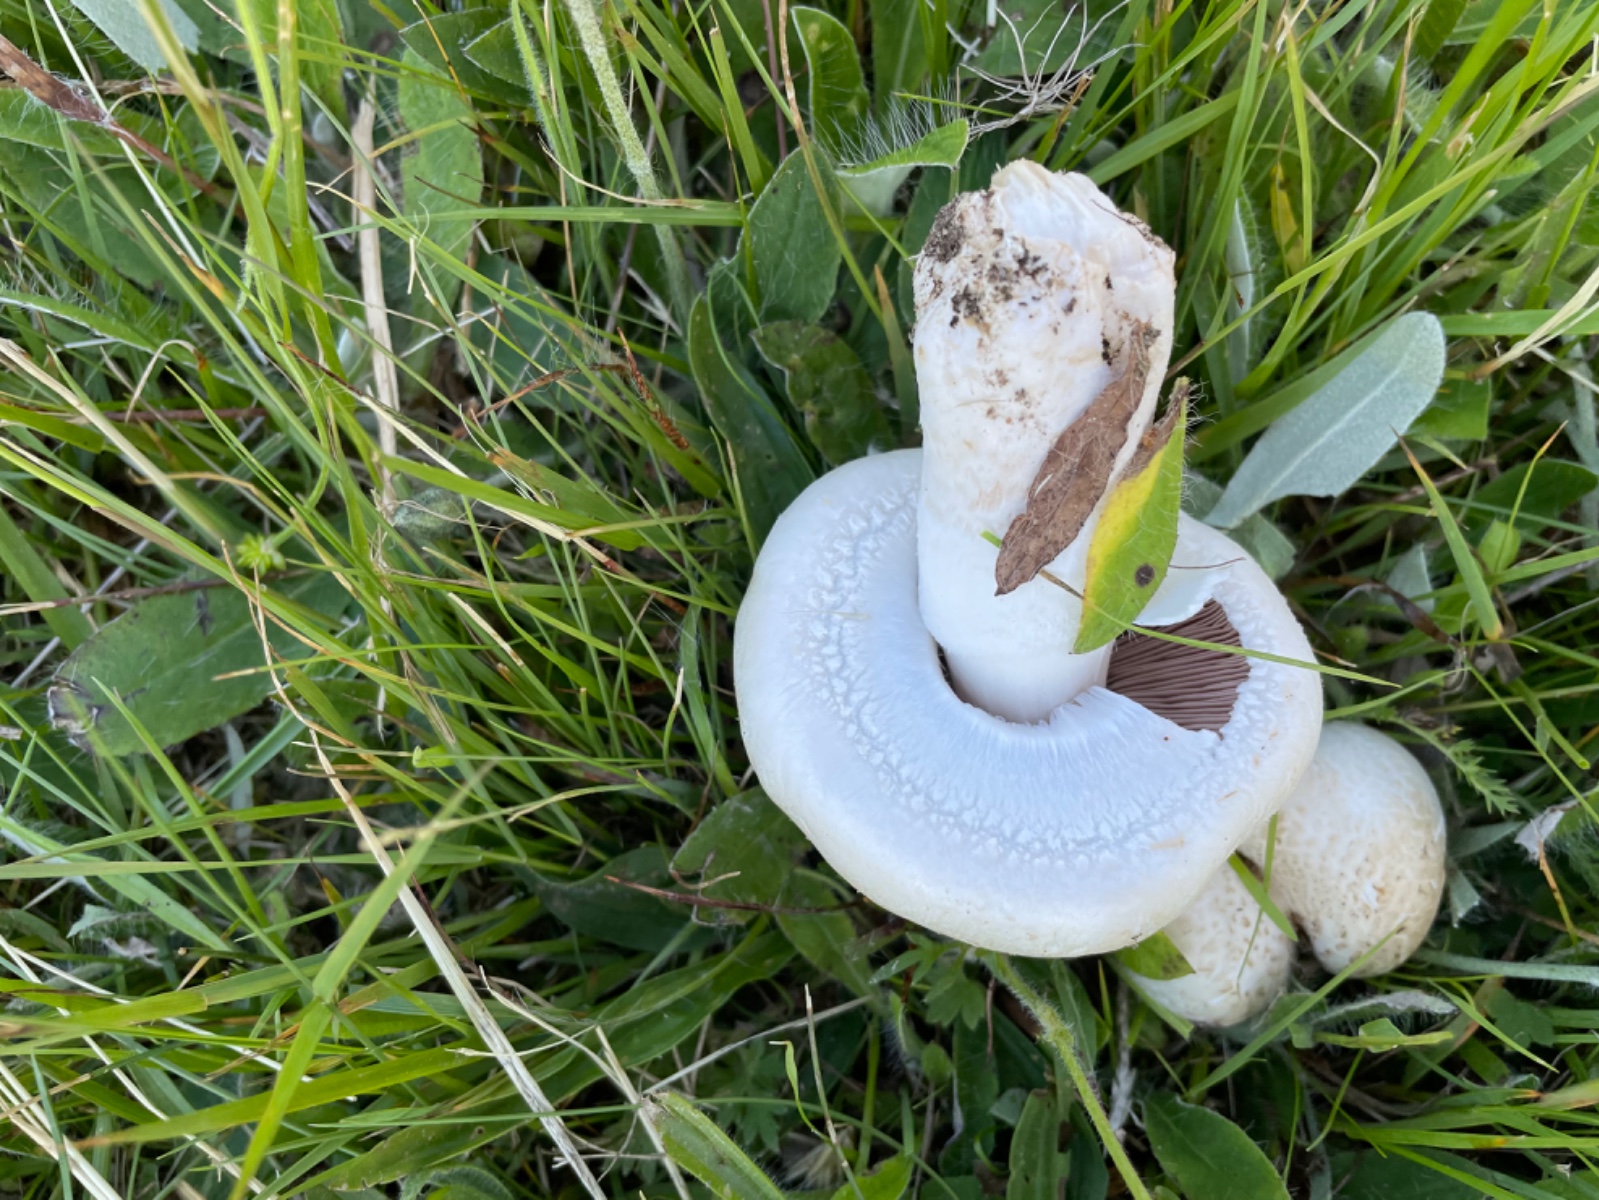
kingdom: Fungi
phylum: Basidiomycota
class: Agaricomycetes
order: Agaricales
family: Agaricaceae
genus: Agaricus
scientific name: Agaricus
